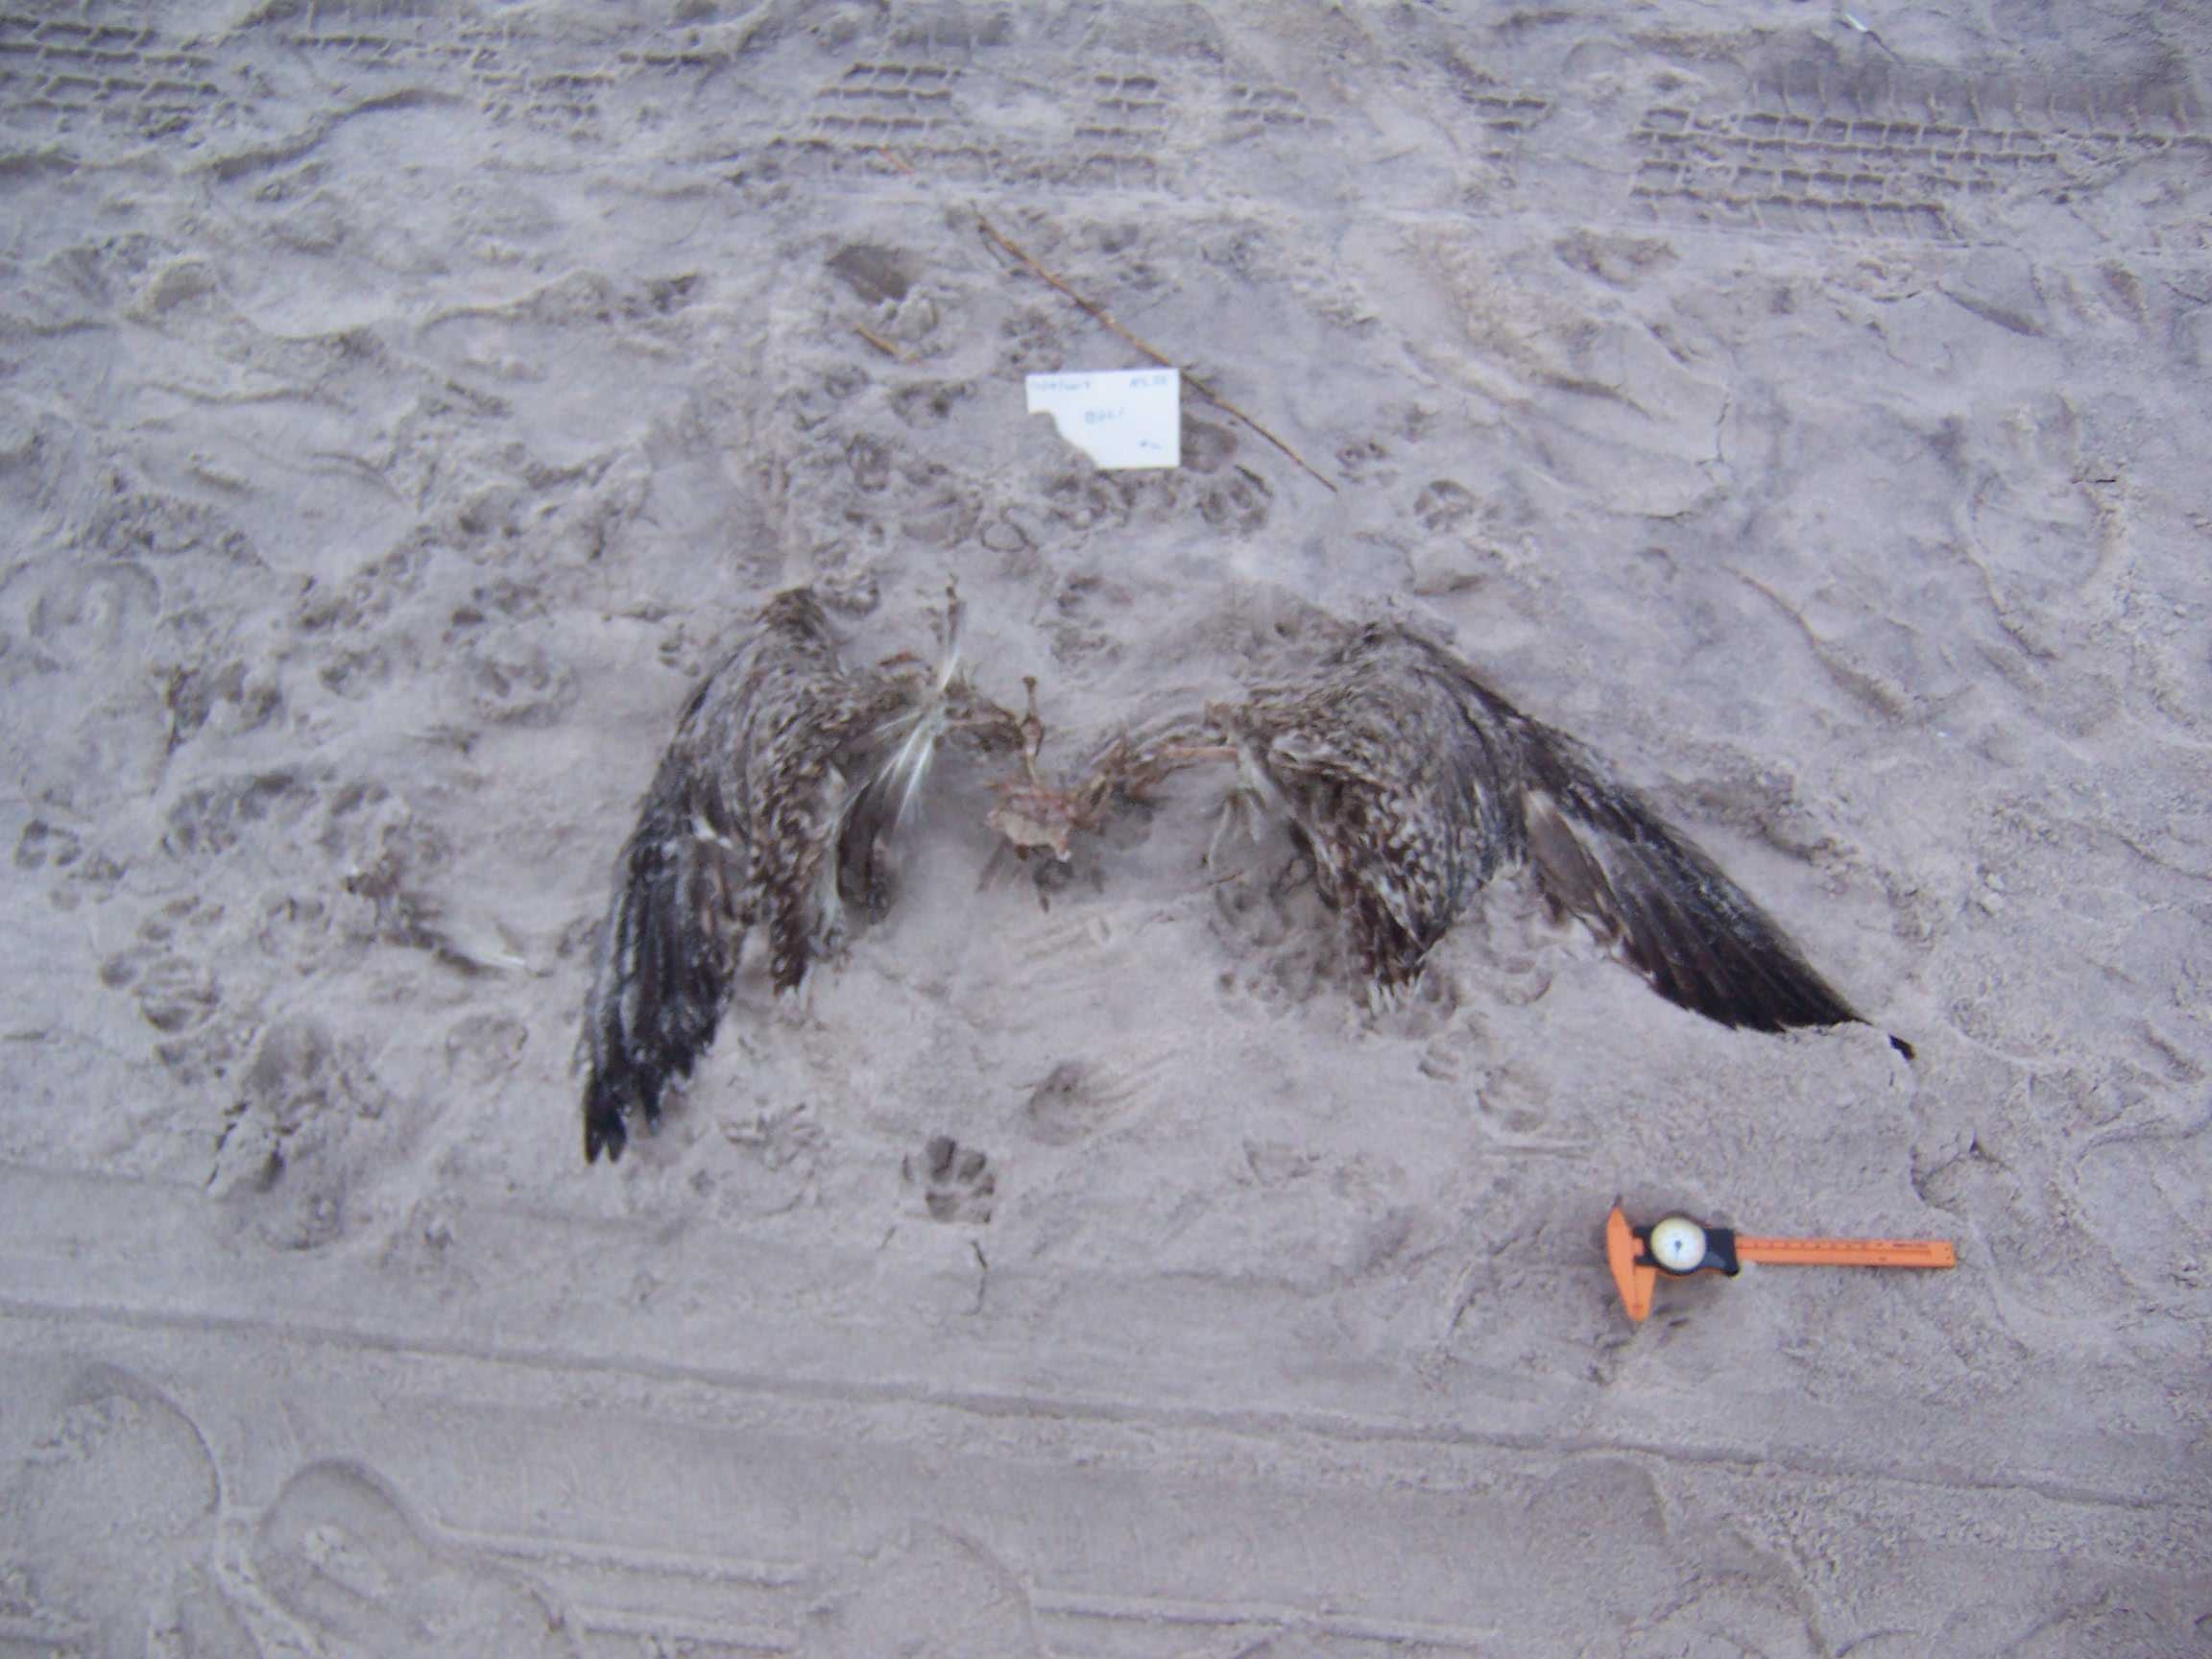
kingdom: Animalia
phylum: Chordata
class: Aves
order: Suliformes
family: Phalacrocoracidae
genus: Phalacrocorax
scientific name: Phalacrocorax
